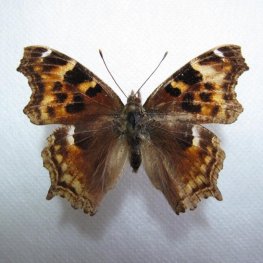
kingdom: Animalia
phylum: Arthropoda
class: Insecta
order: Lepidoptera
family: Nymphalidae
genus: Polygonia
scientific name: Polygonia vaualbum
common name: Compton Tortoiseshell
